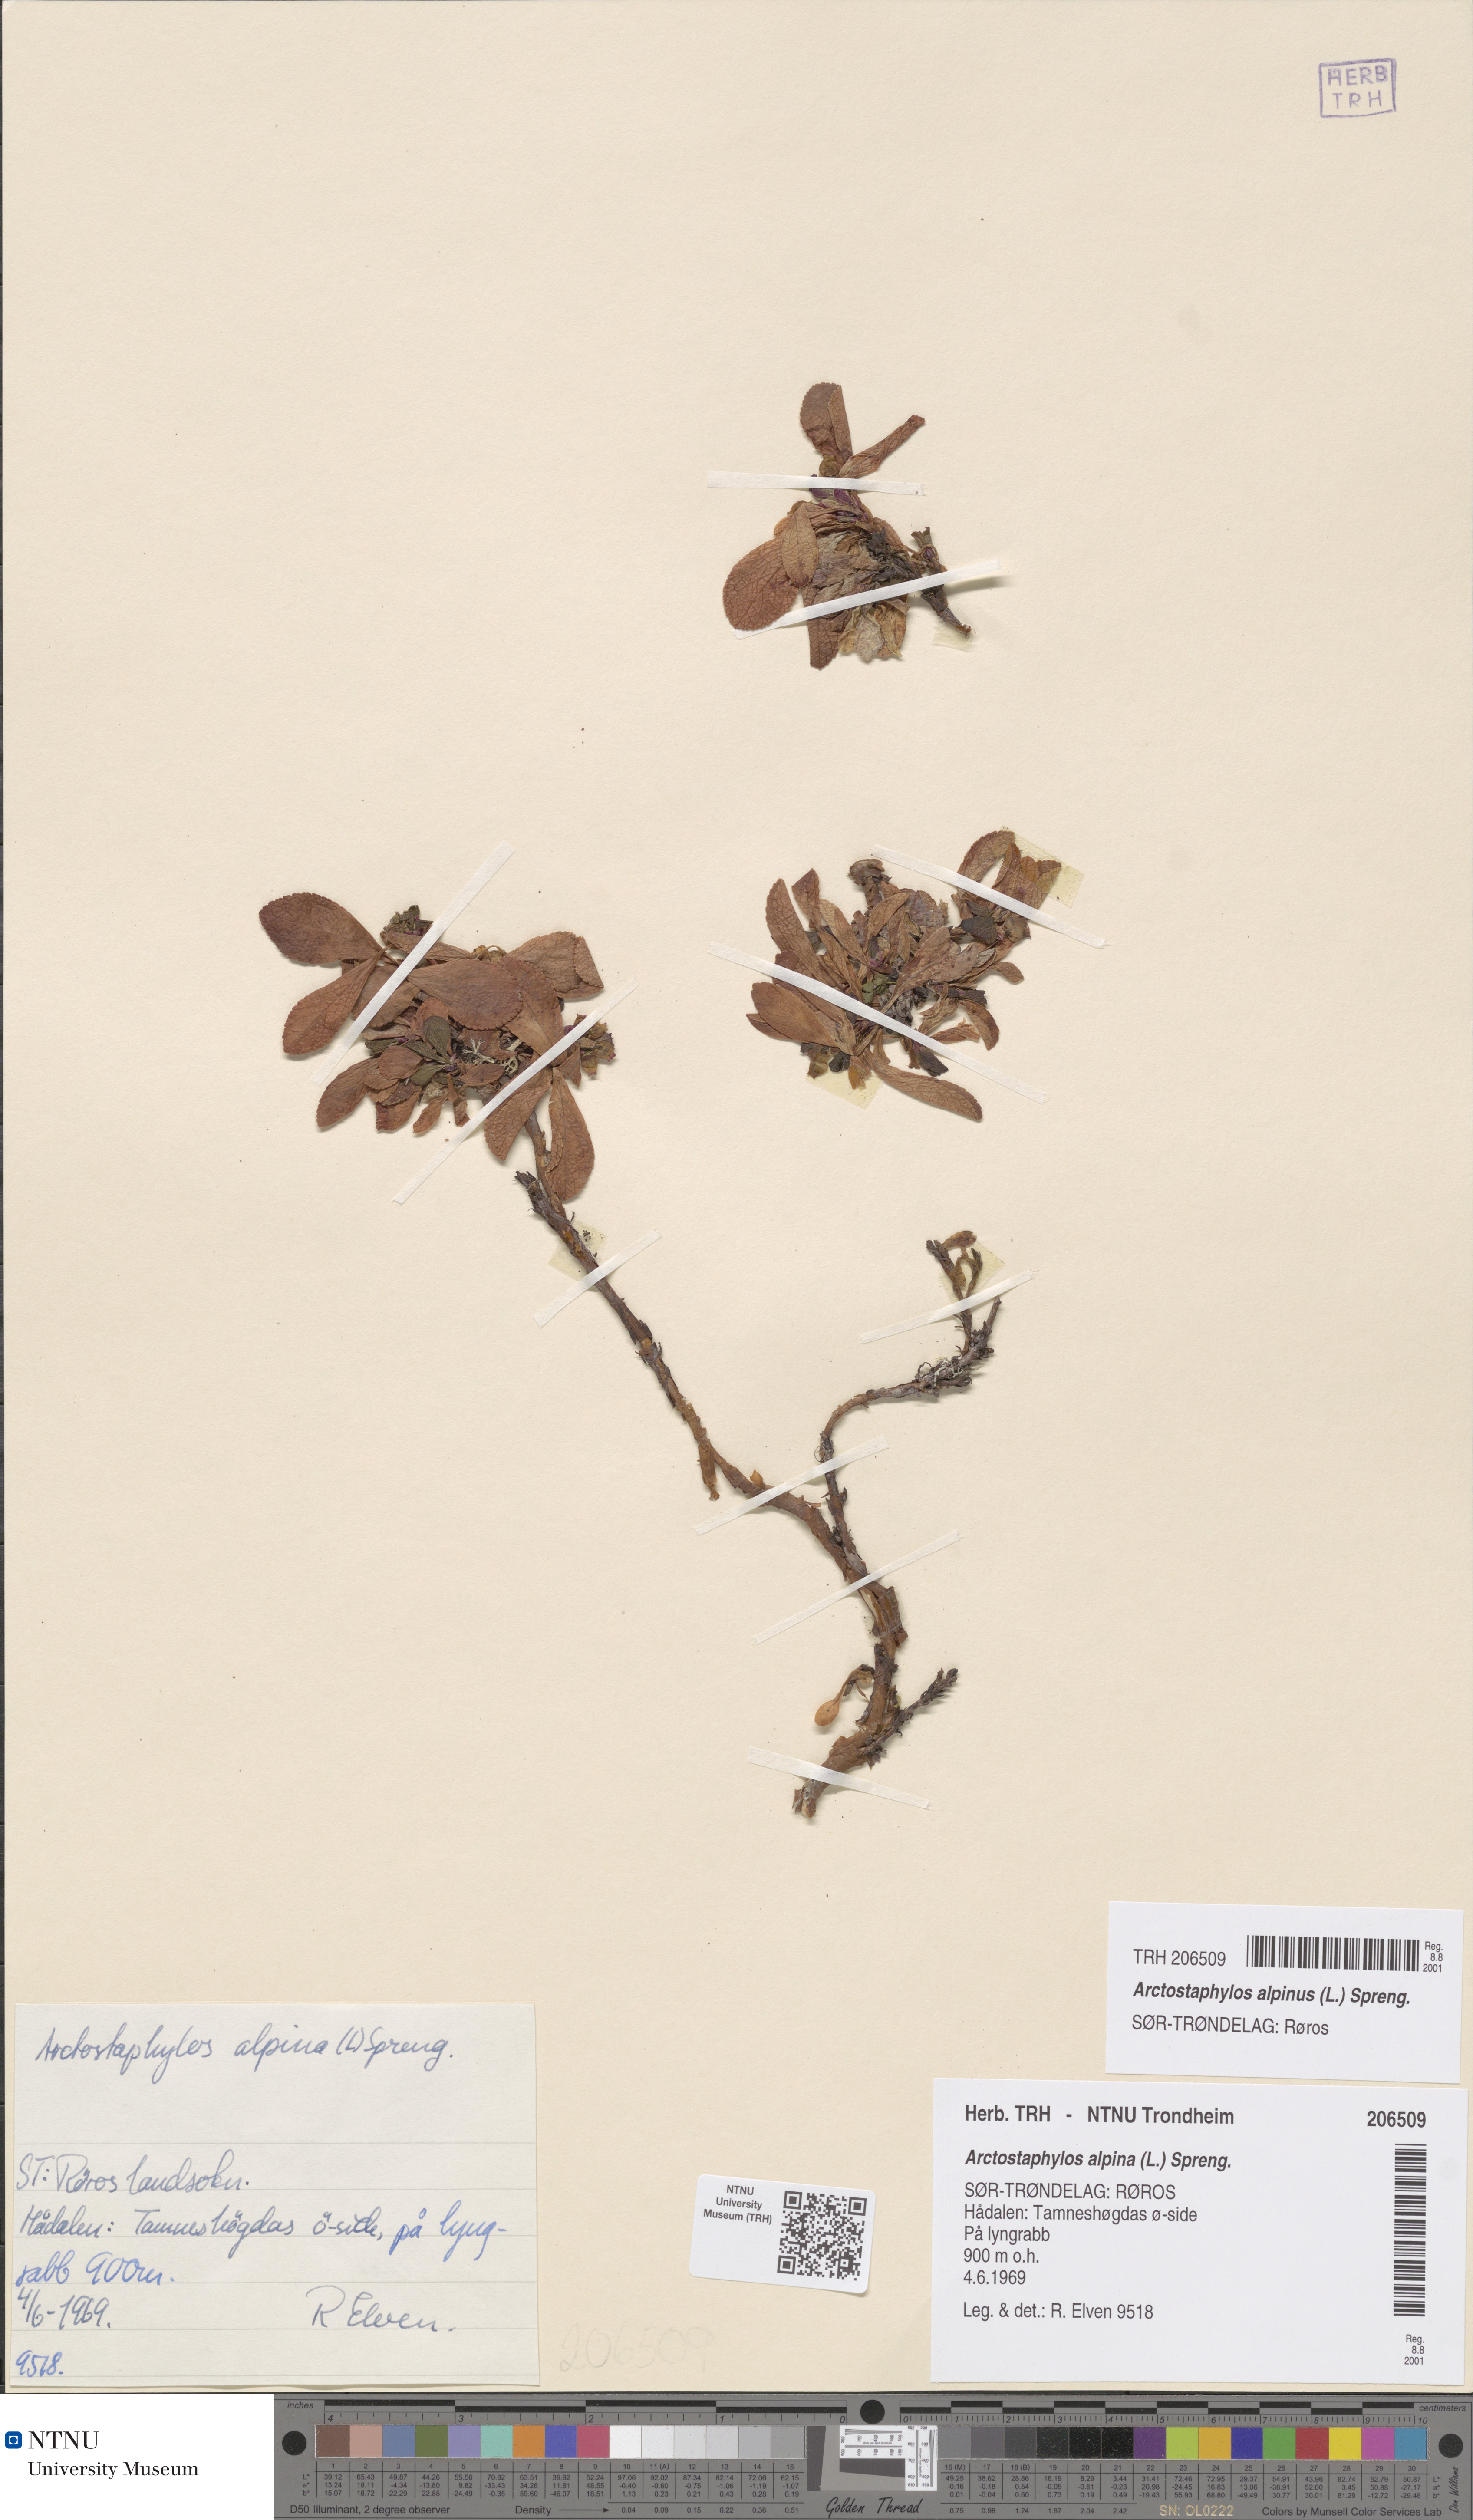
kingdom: Plantae
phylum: Tracheophyta
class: Magnoliopsida
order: Ericales
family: Ericaceae
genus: Arctostaphylos
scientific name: Arctostaphylos alpinus
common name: Alpine bearberry
